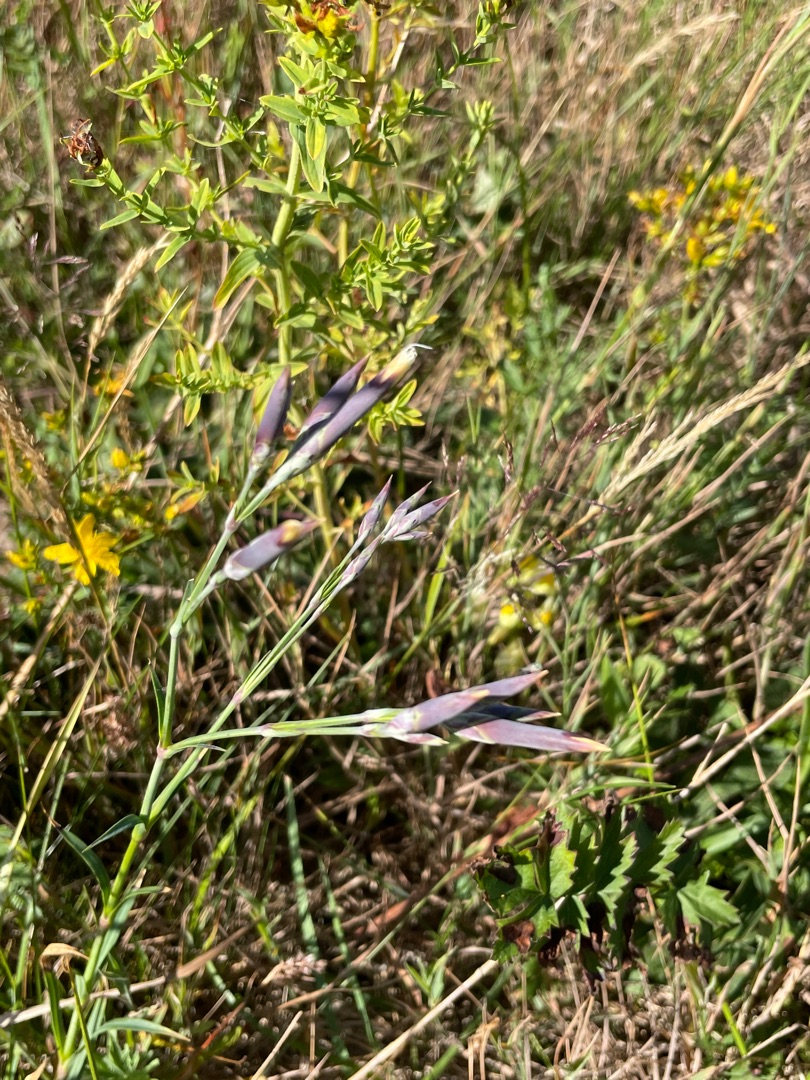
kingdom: Plantae
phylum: Tracheophyta
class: Magnoliopsida
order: Caryophyllales
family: Caryophyllaceae
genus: Dianthus
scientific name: Dianthus superbus
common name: Strand-nellike
